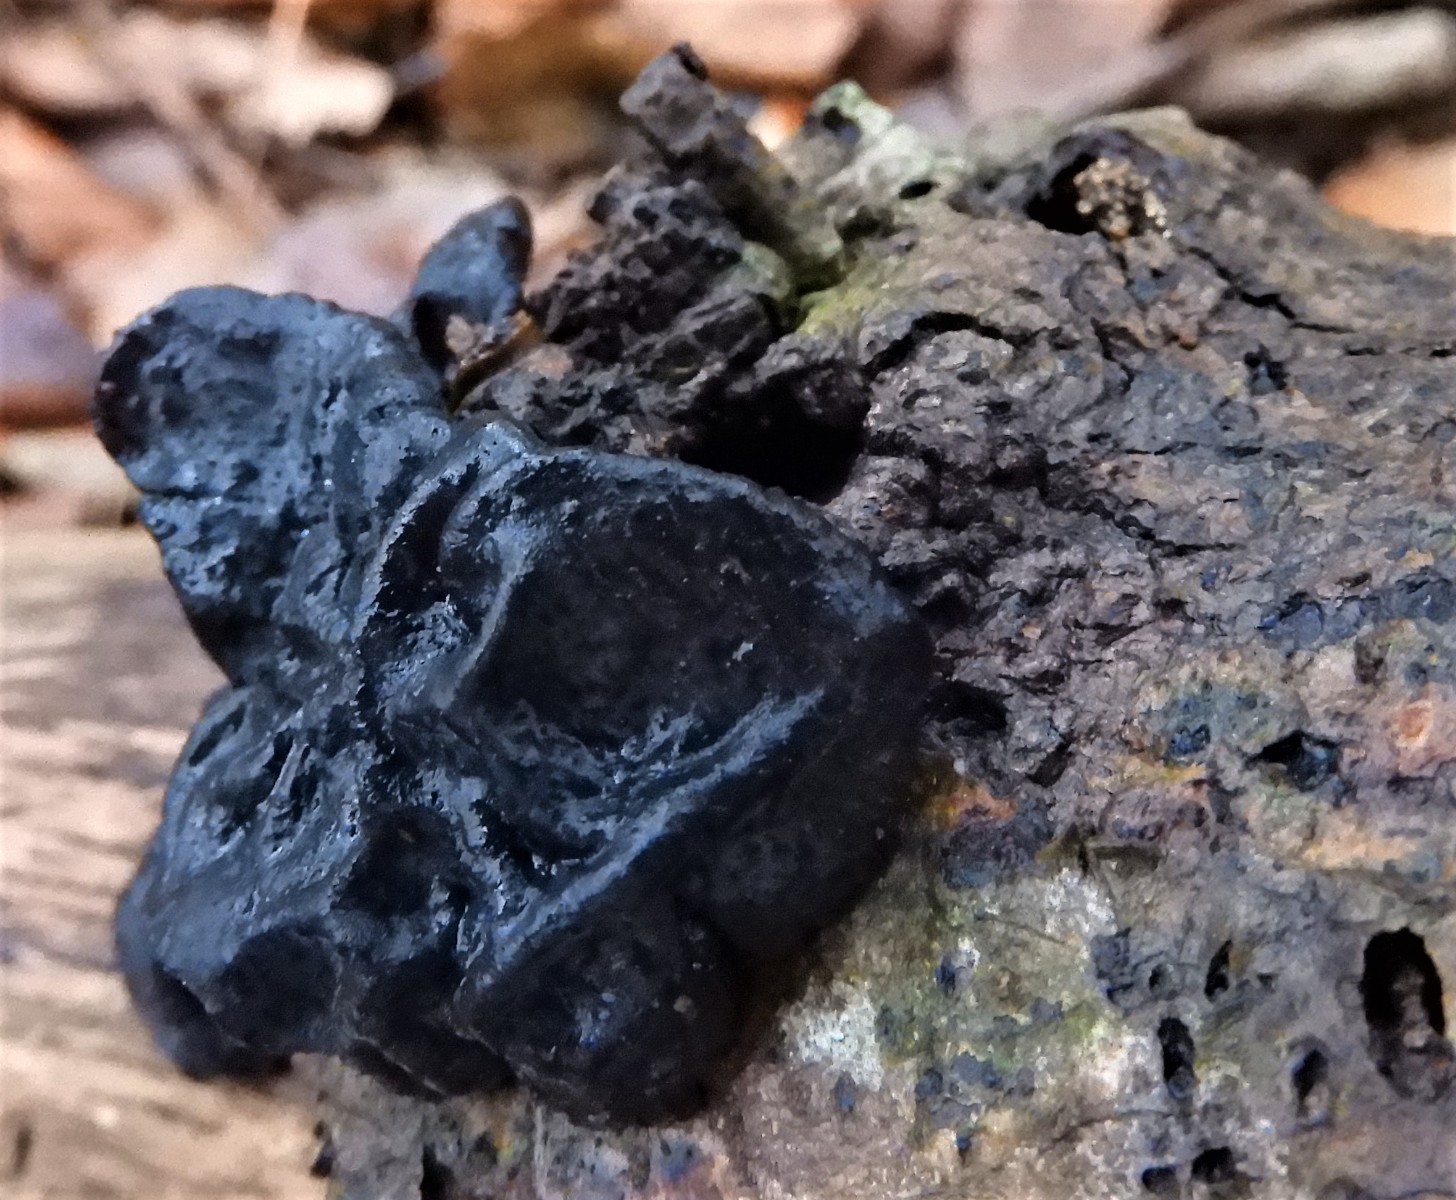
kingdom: Fungi
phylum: Basidiomycota
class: Agaricomycetes
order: Auriculariales
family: Auriculariaceae
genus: Exidia
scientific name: Exidia glandulosa
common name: ege-bævretop
